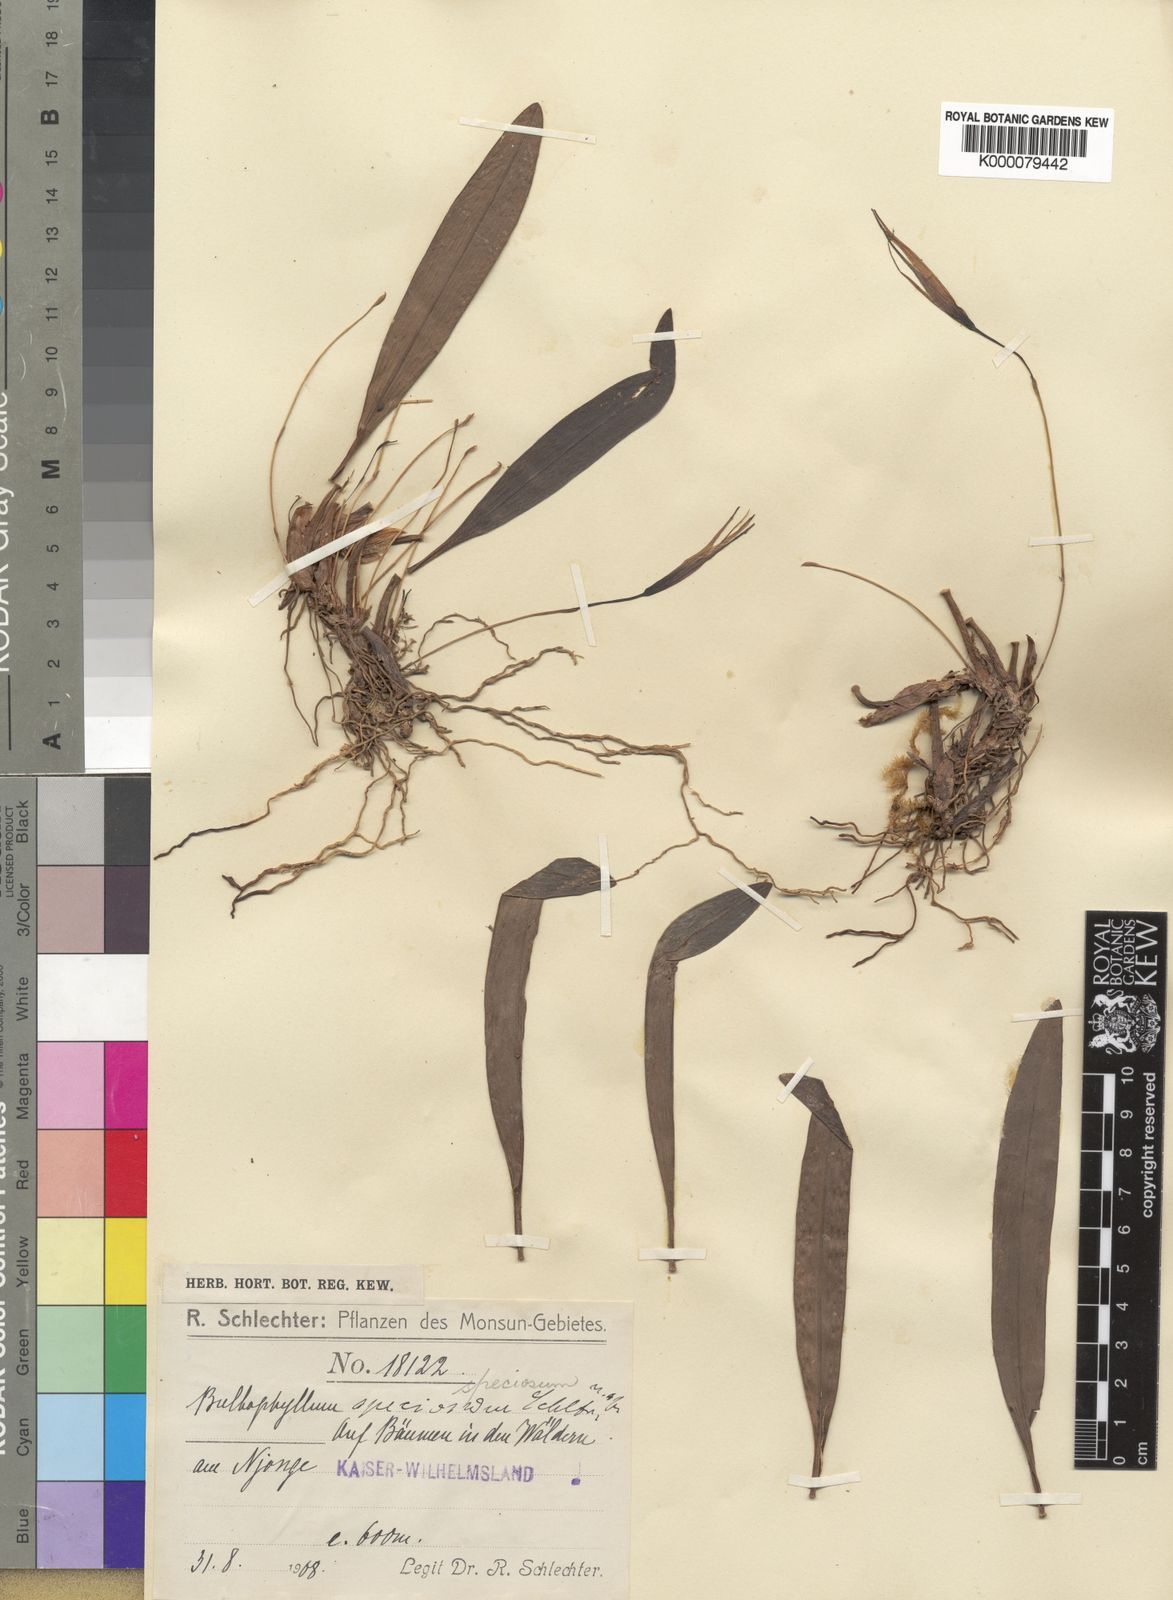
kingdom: Plantae
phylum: Tracheophyta
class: Liliopsida
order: Asparagales
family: Orchidaceae
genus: Bulbophyllum
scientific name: Bulbophyllum speciosum
